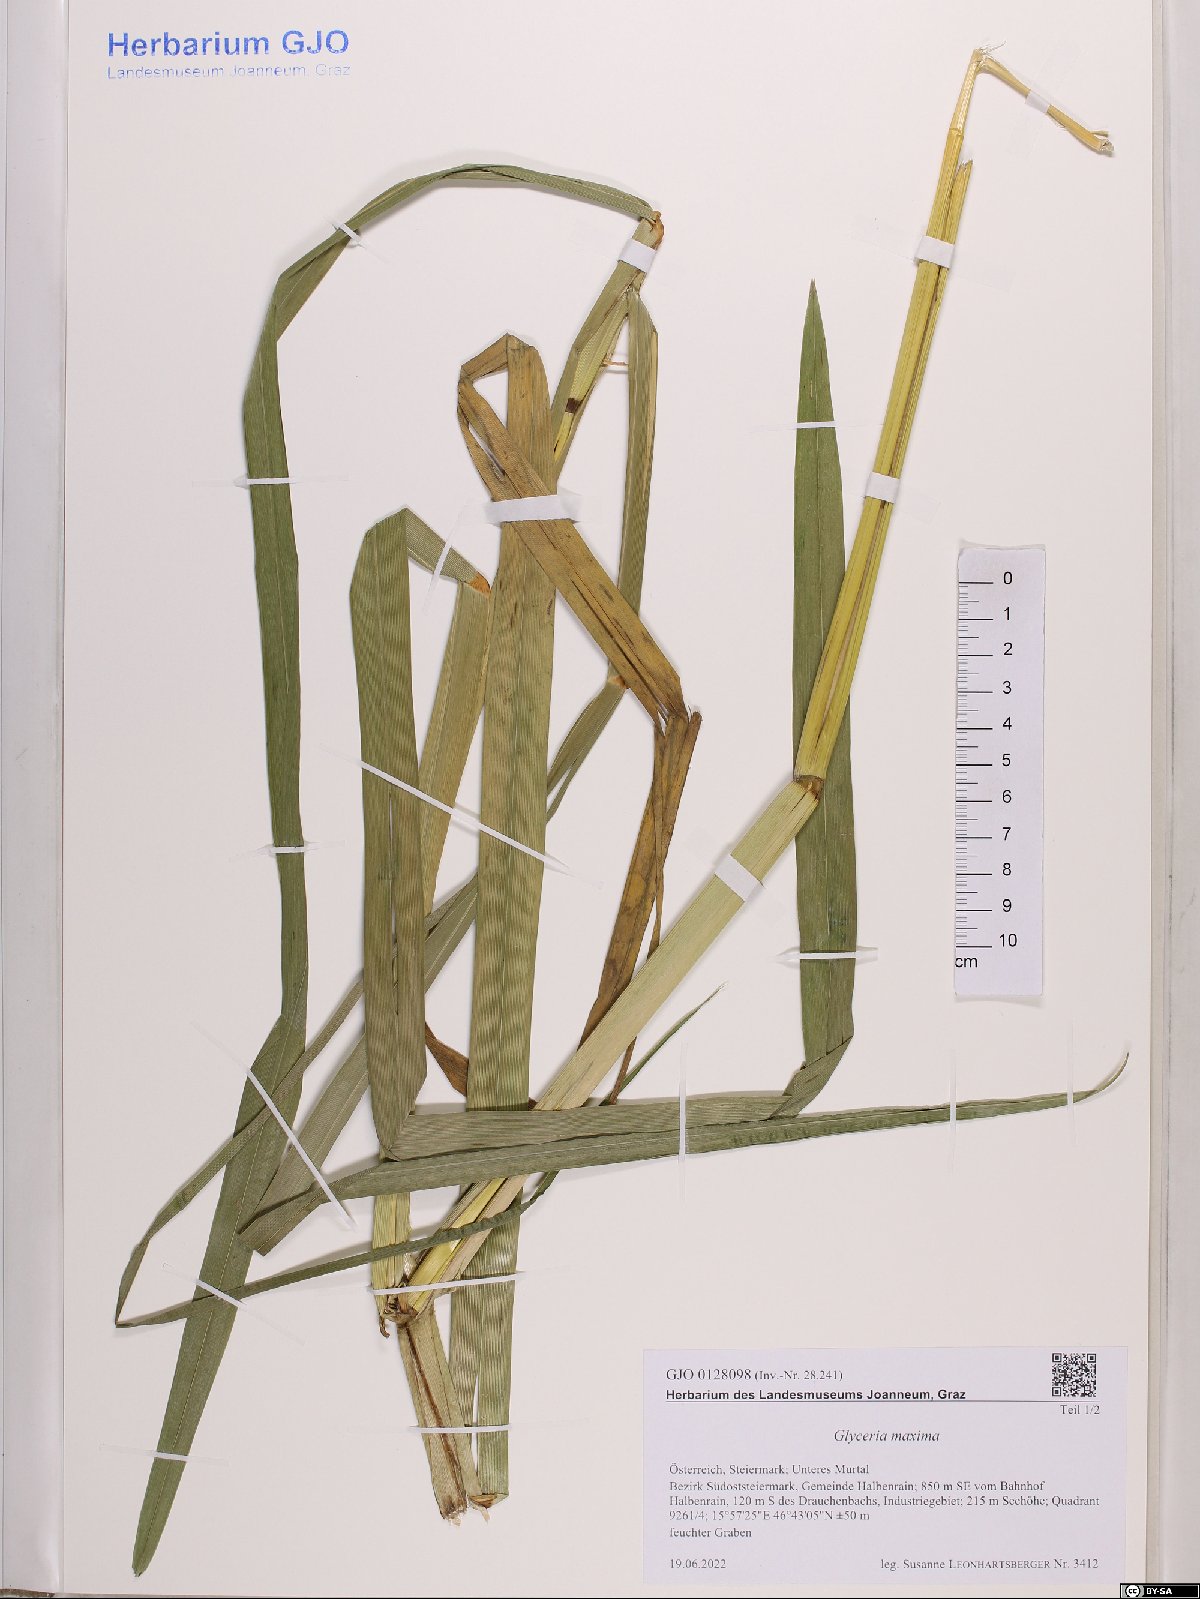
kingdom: Plantae
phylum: Tracheophyta
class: Liliopsida
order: Poales
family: Poaceae
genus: Glyceria
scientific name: Glyceria maxima
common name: Reed mannagrass
